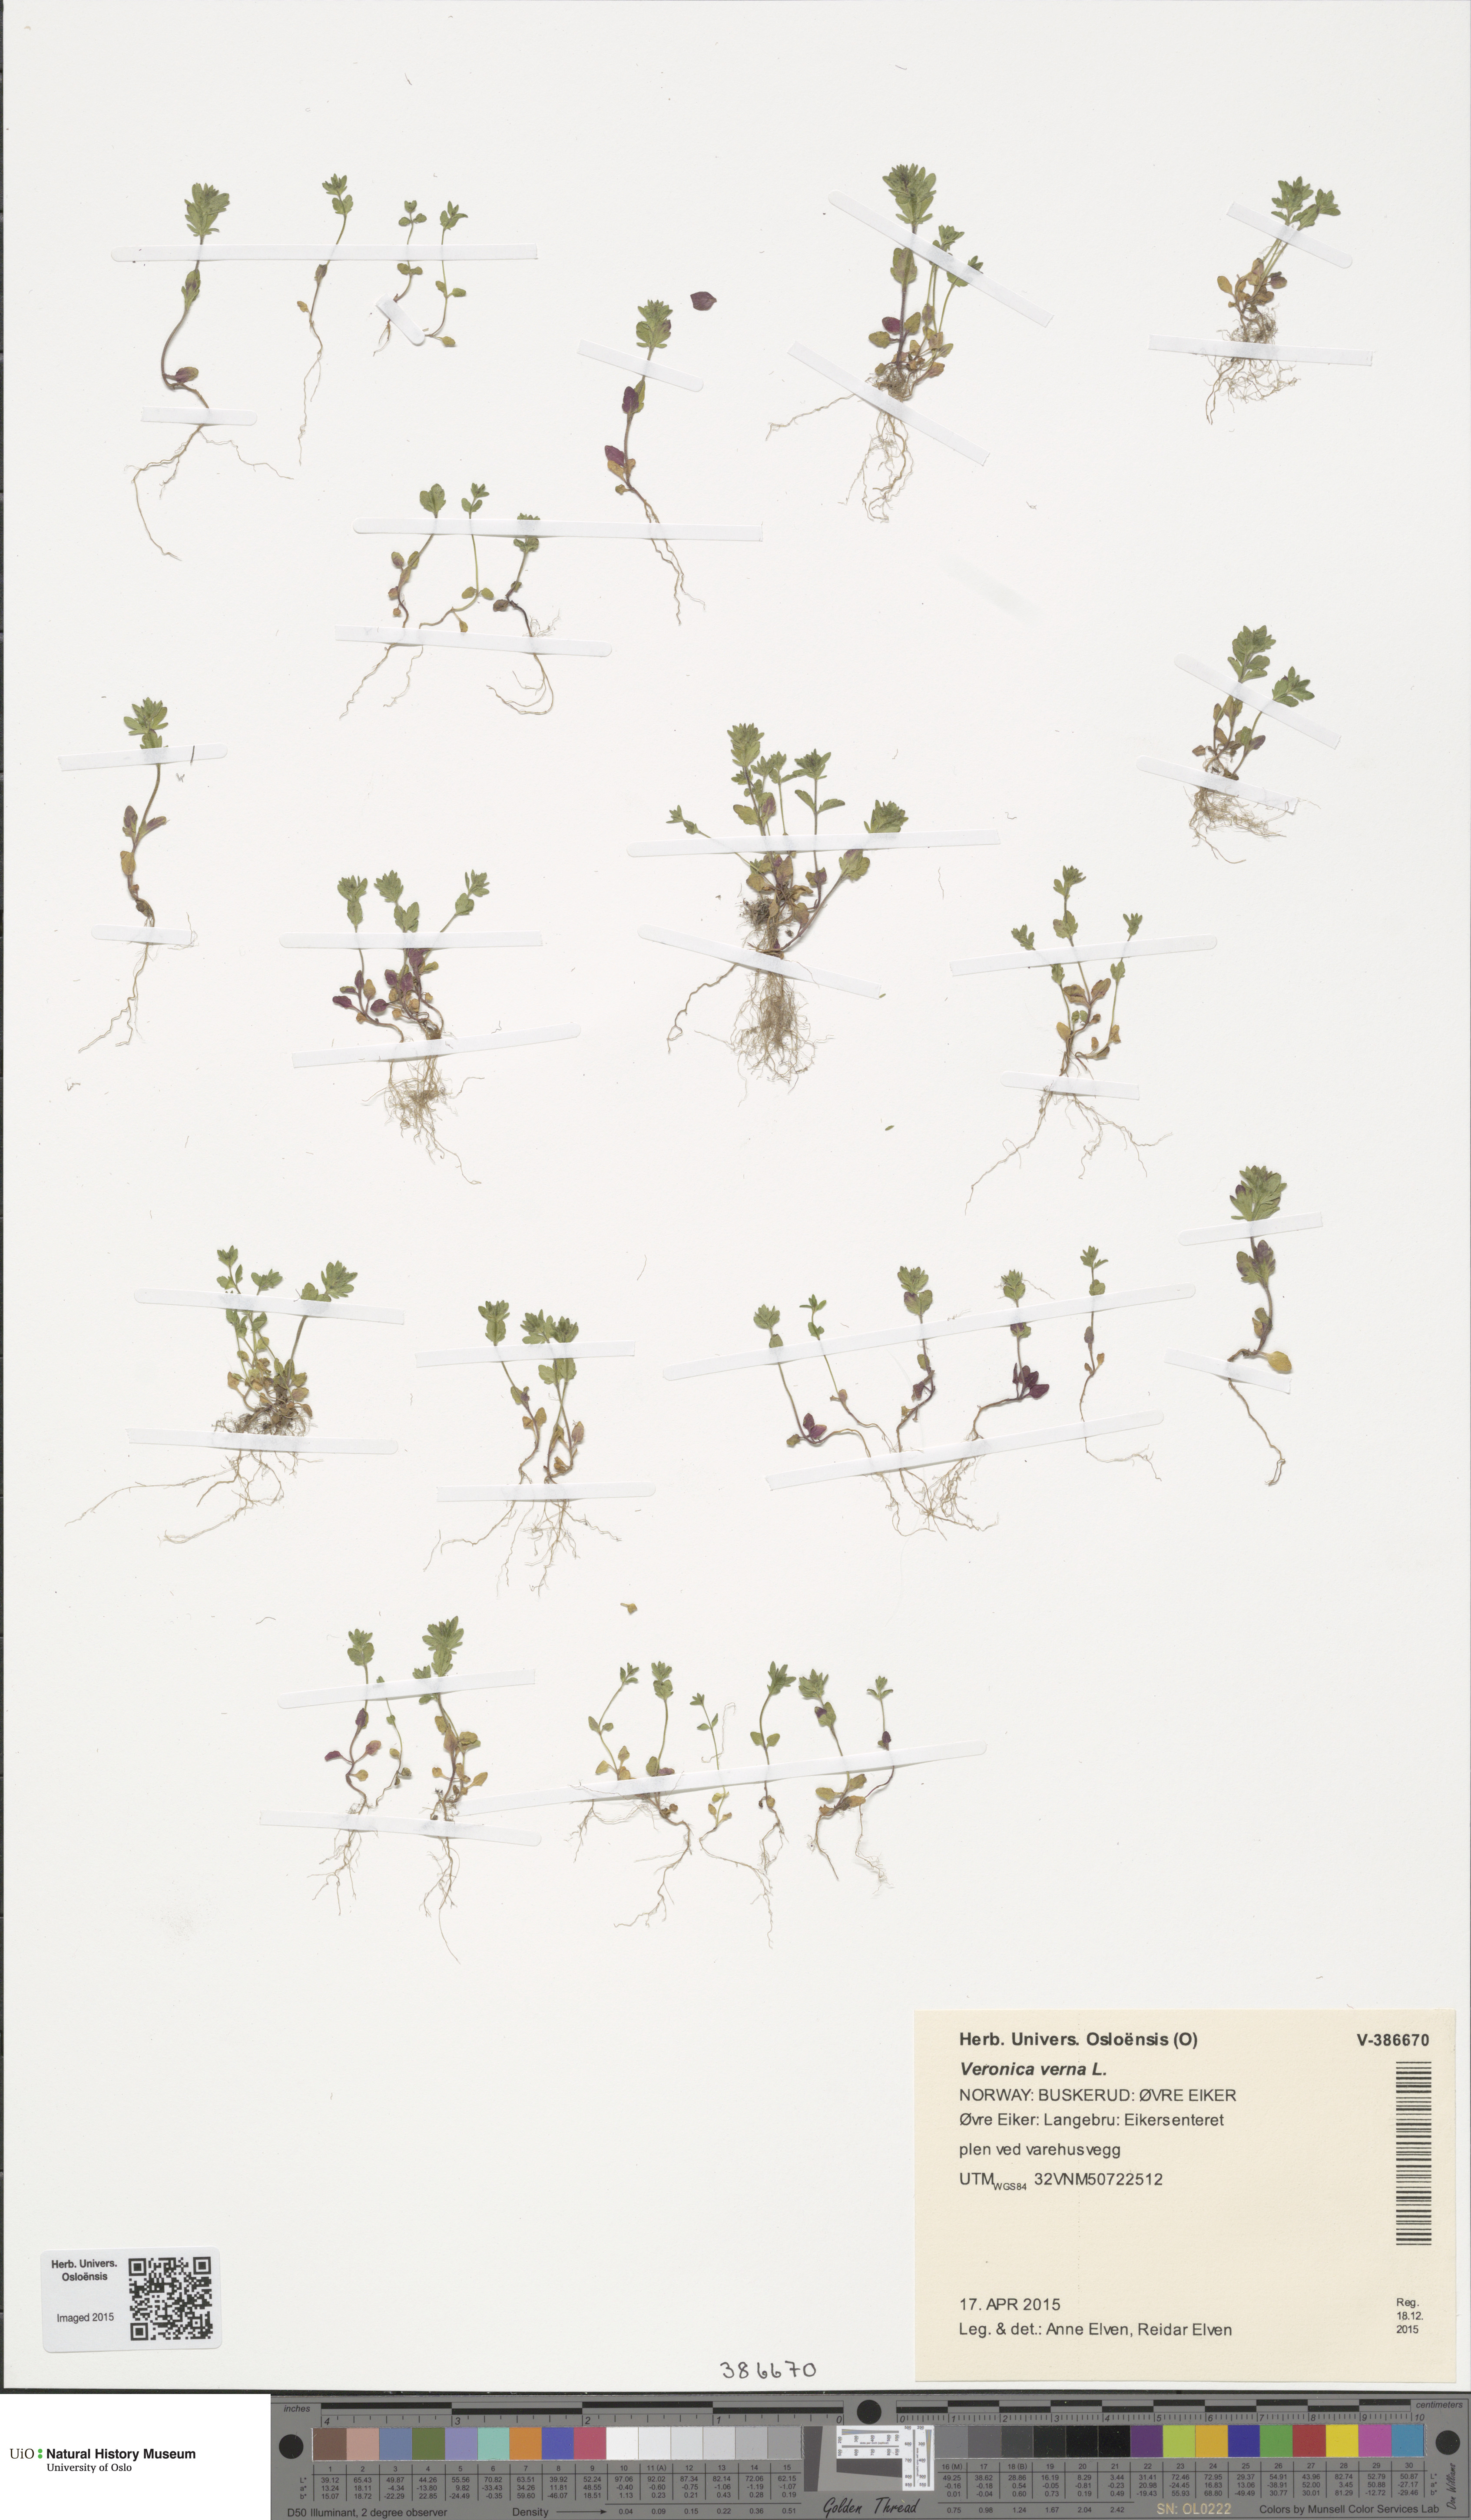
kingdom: Plantae
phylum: Tracheophyta
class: Magnoliopsida
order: Lamiales
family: Plantaginaceae
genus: Veronica
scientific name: Veronica verna
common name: Spring speedwell
